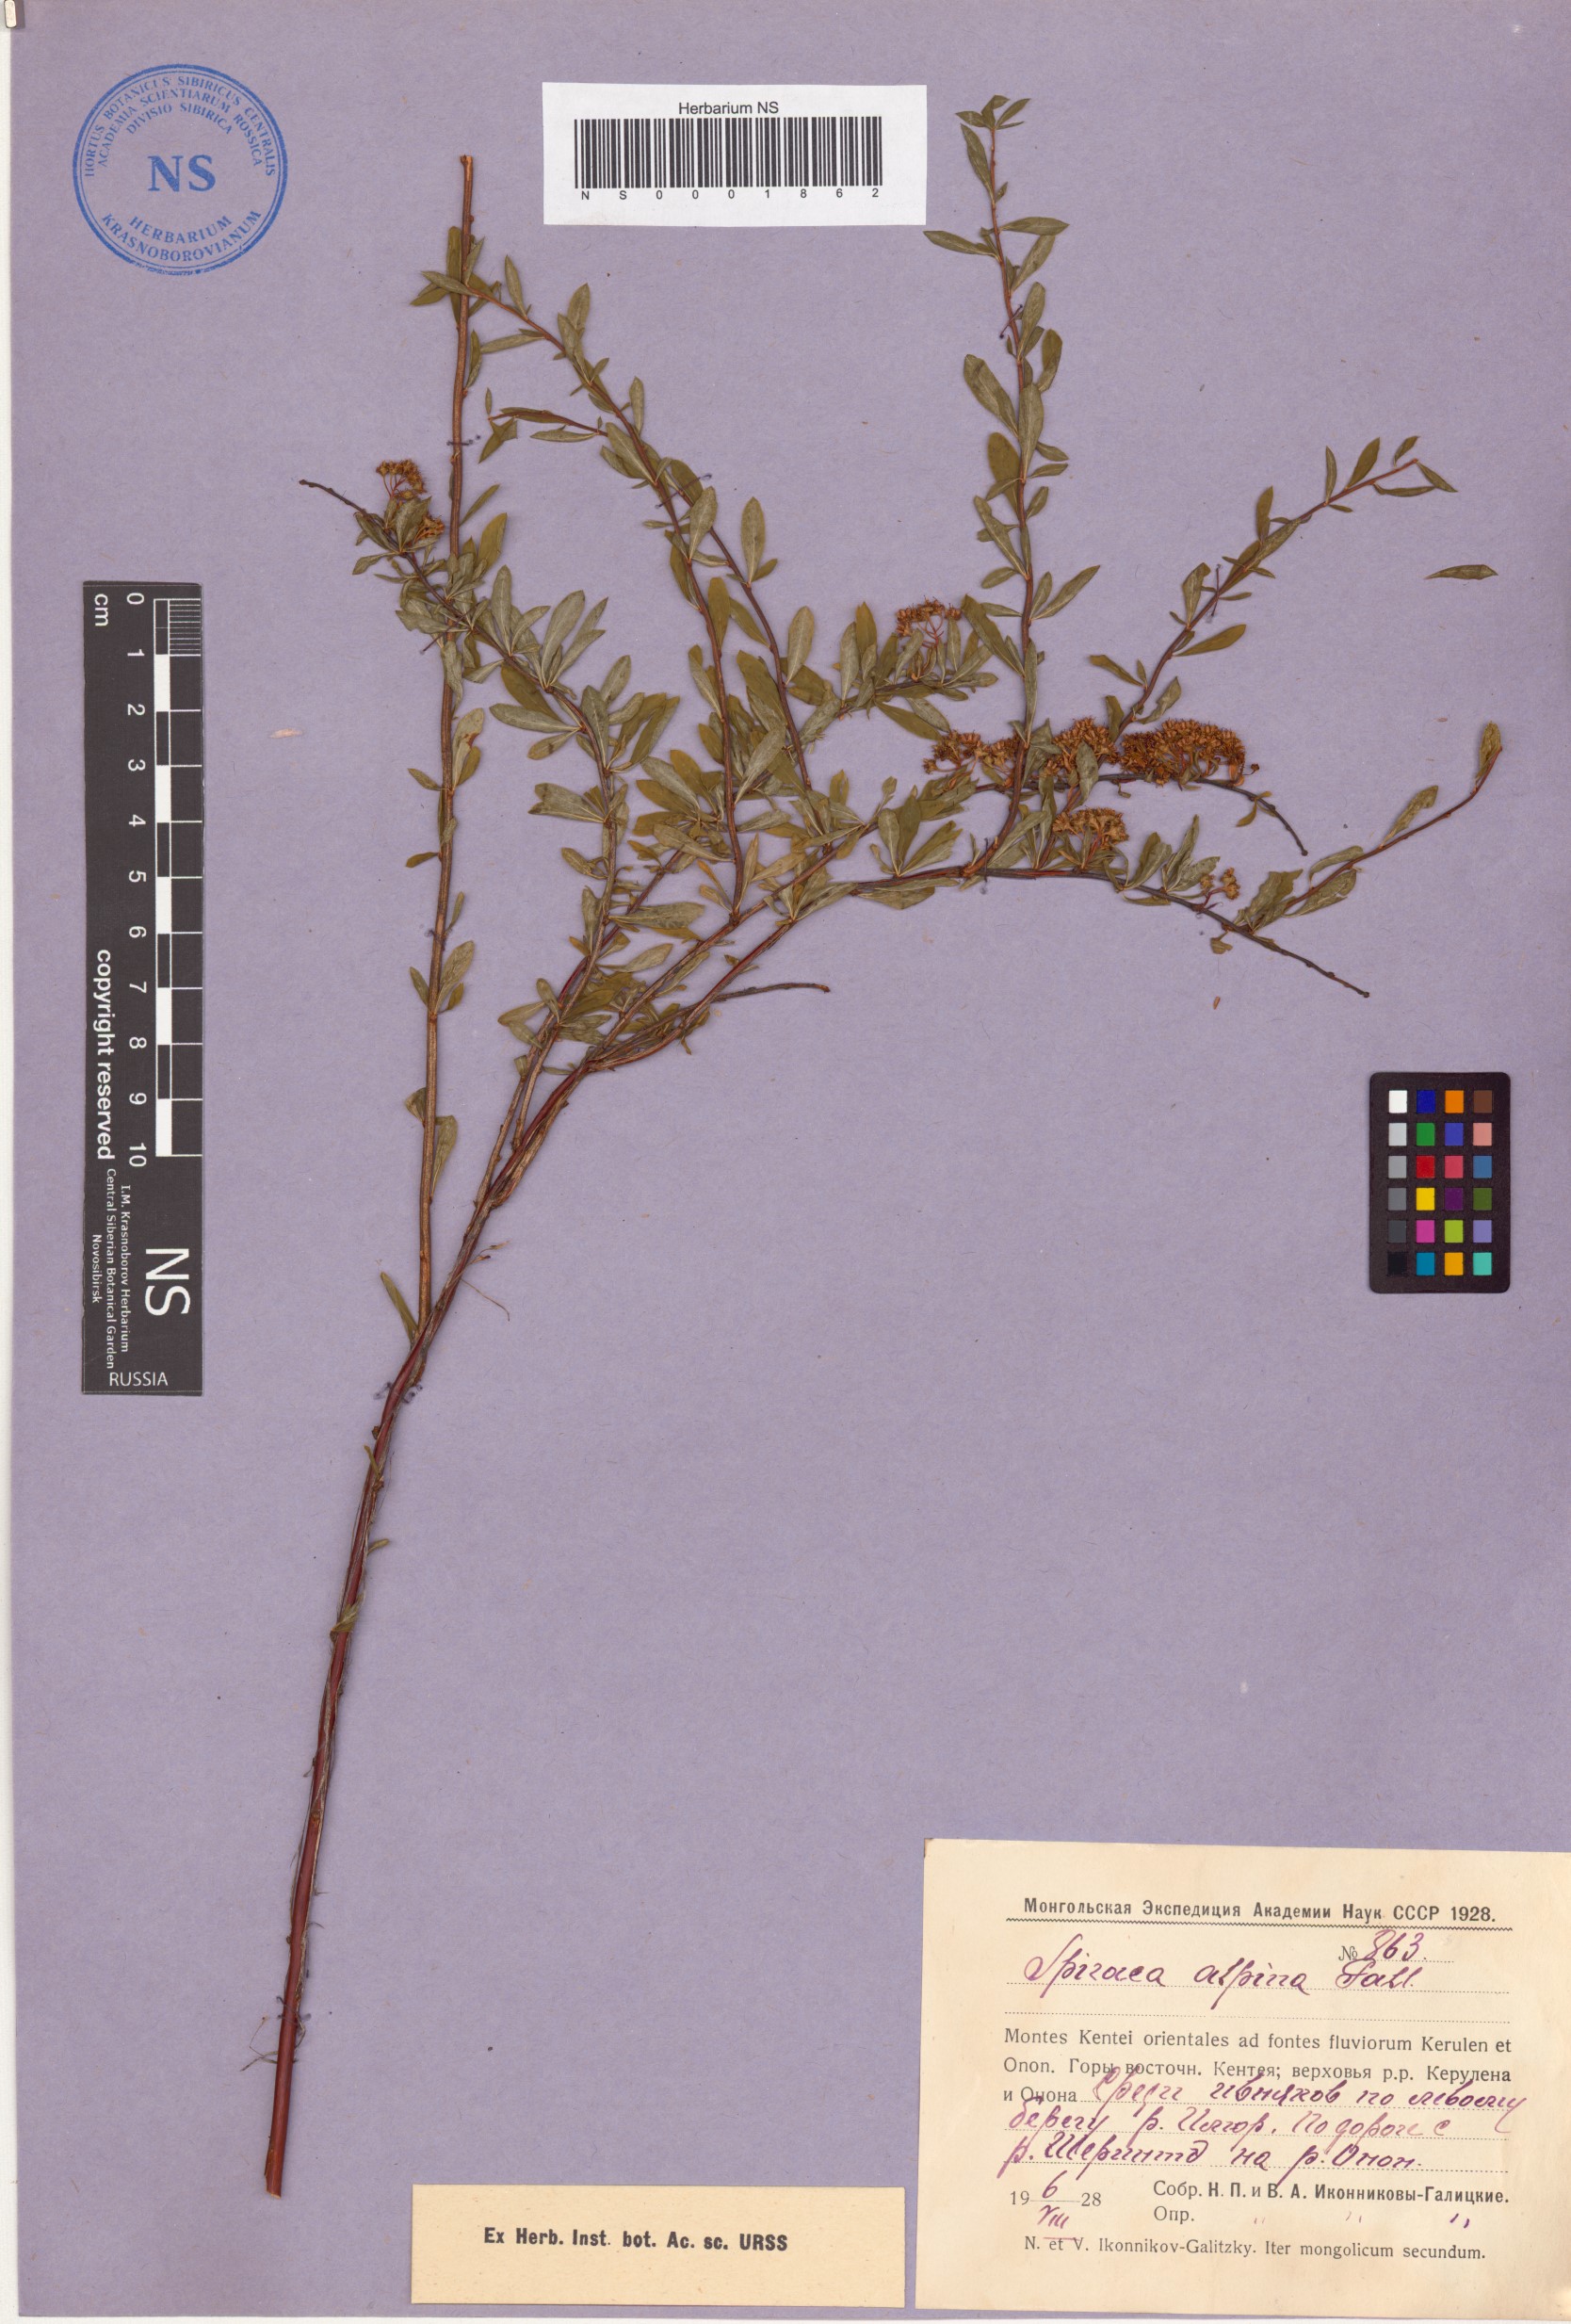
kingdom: Plantae
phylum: Tracheophyta
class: Magnoliopsida
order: Rosales
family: Rosaceae
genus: Spiraea
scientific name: Spiraea alpina
